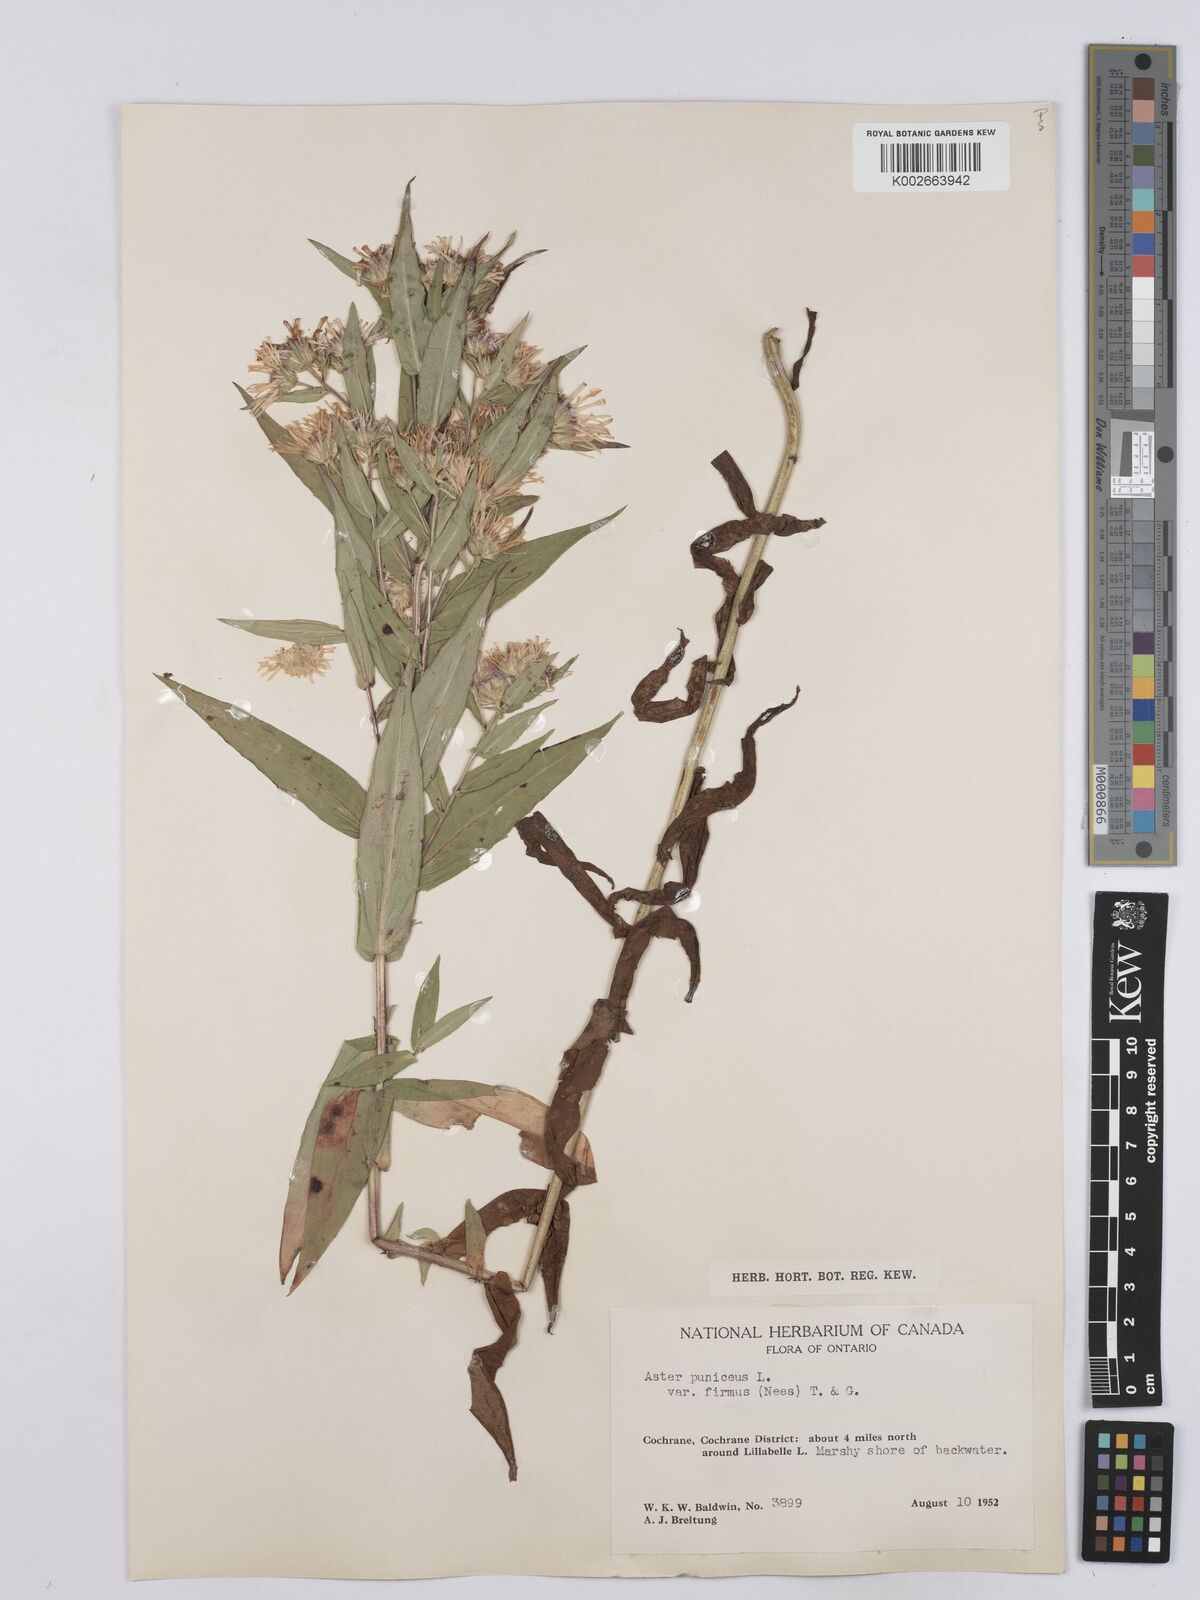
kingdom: Plantae
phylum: Tracheophyta
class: Magnoliopsida
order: Asterales
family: Asteraceae
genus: Symphyotrichum
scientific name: Symphyotrichum puniceum
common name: Bog aster
